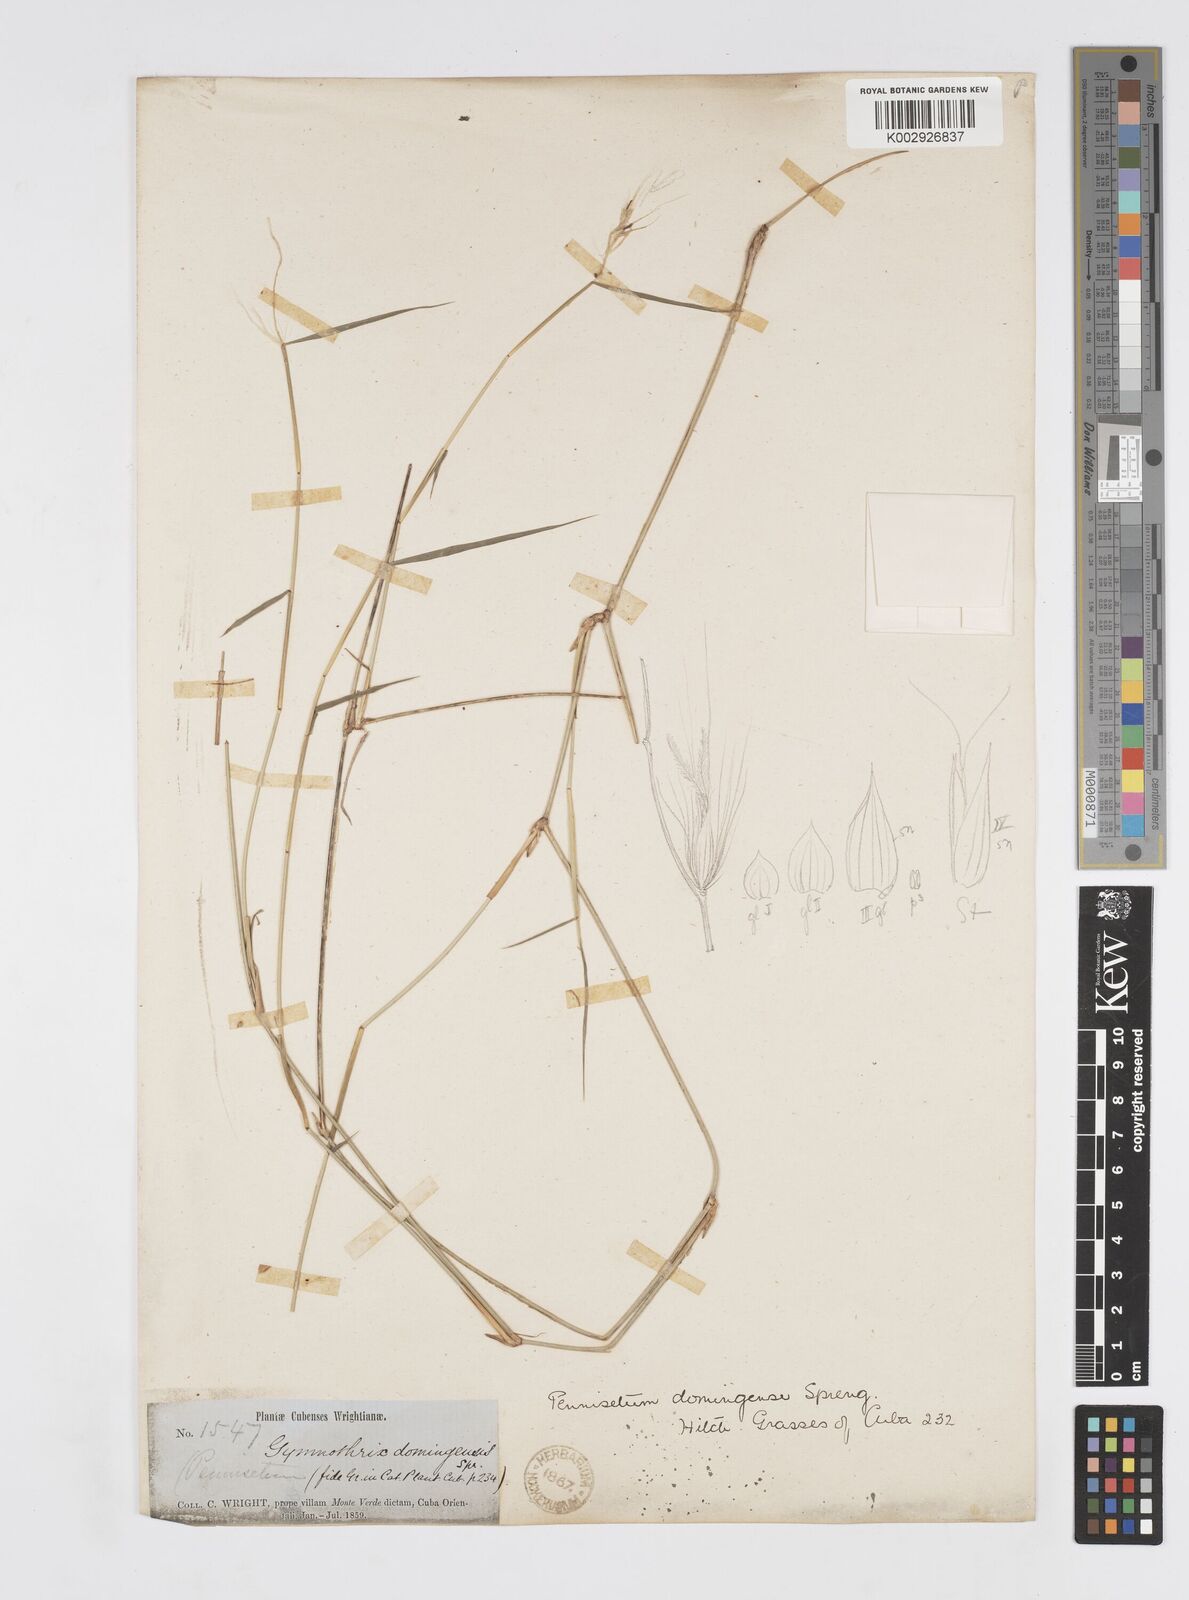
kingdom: Plantae
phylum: Tracheophyta
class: Liliopsida
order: Poales
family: Poaceae
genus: Cenchrus
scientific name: Cenchrus domingensis
